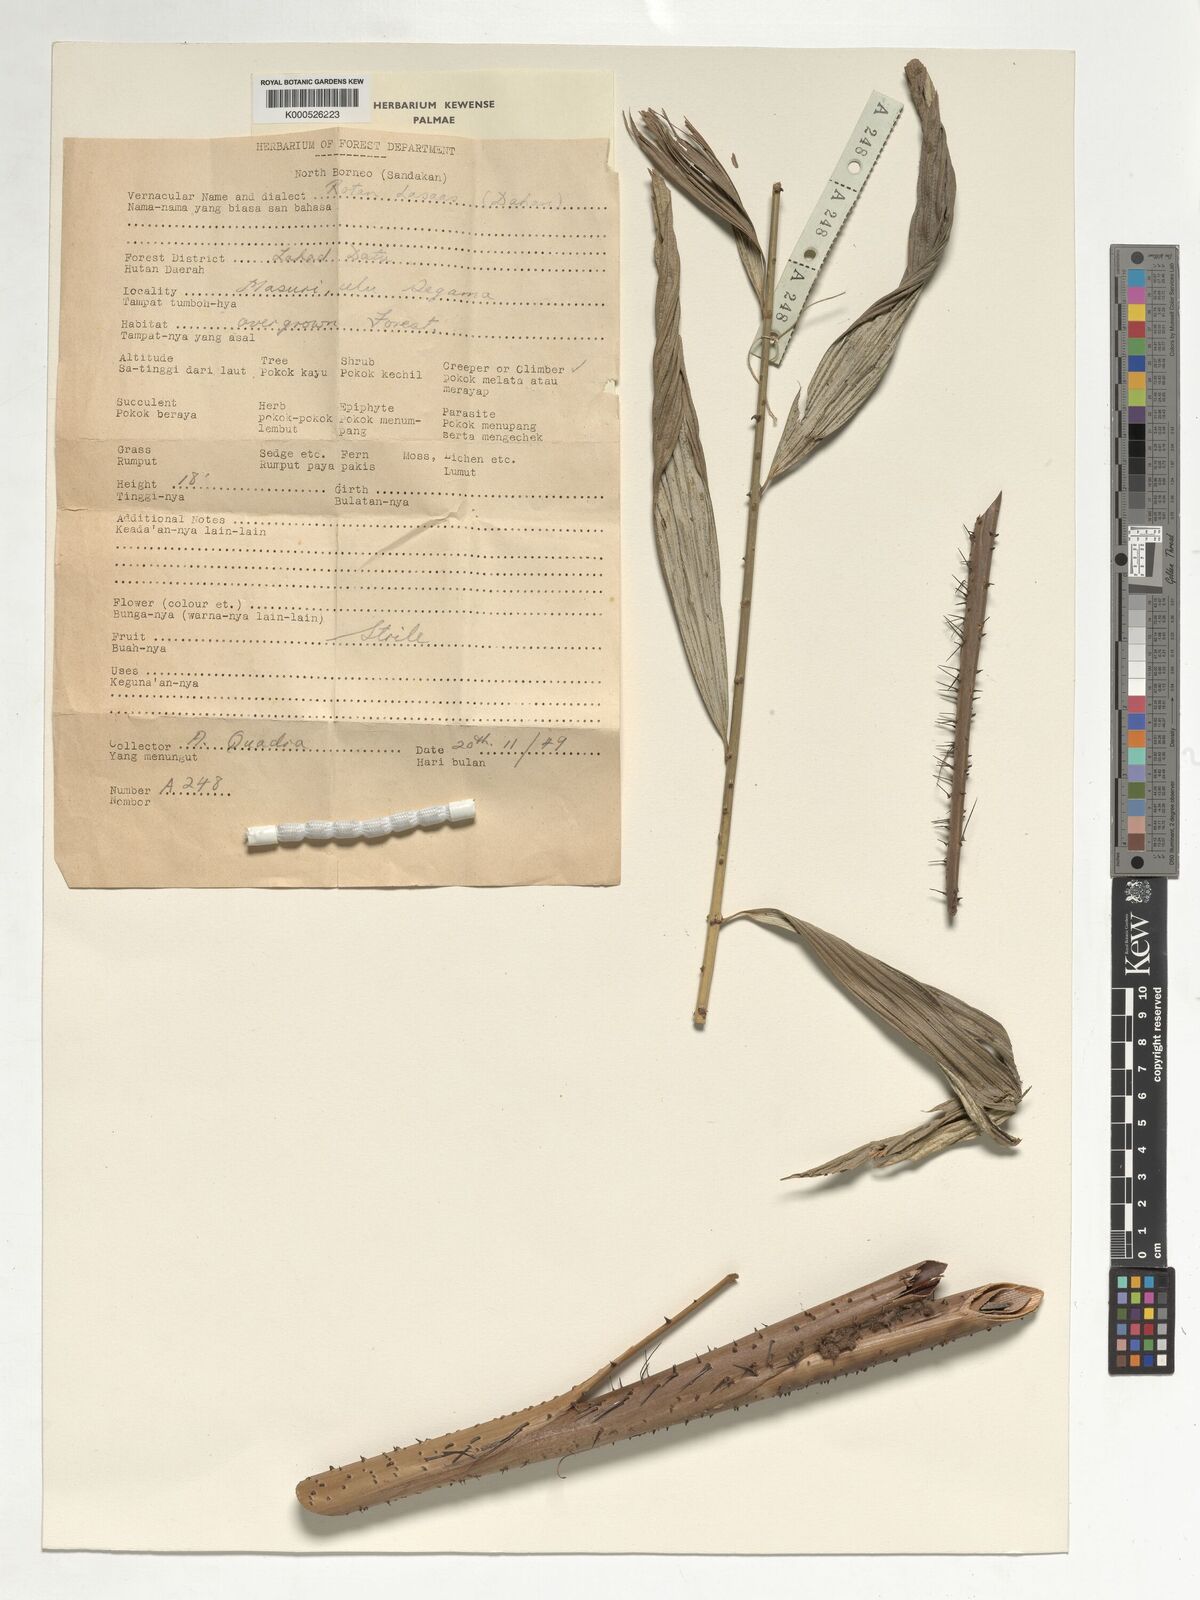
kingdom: Plantae
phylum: Tracheophyta
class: Liliopsida
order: Arecales
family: Arecaceae
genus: Korthalsia
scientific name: Korthalsia robusta
